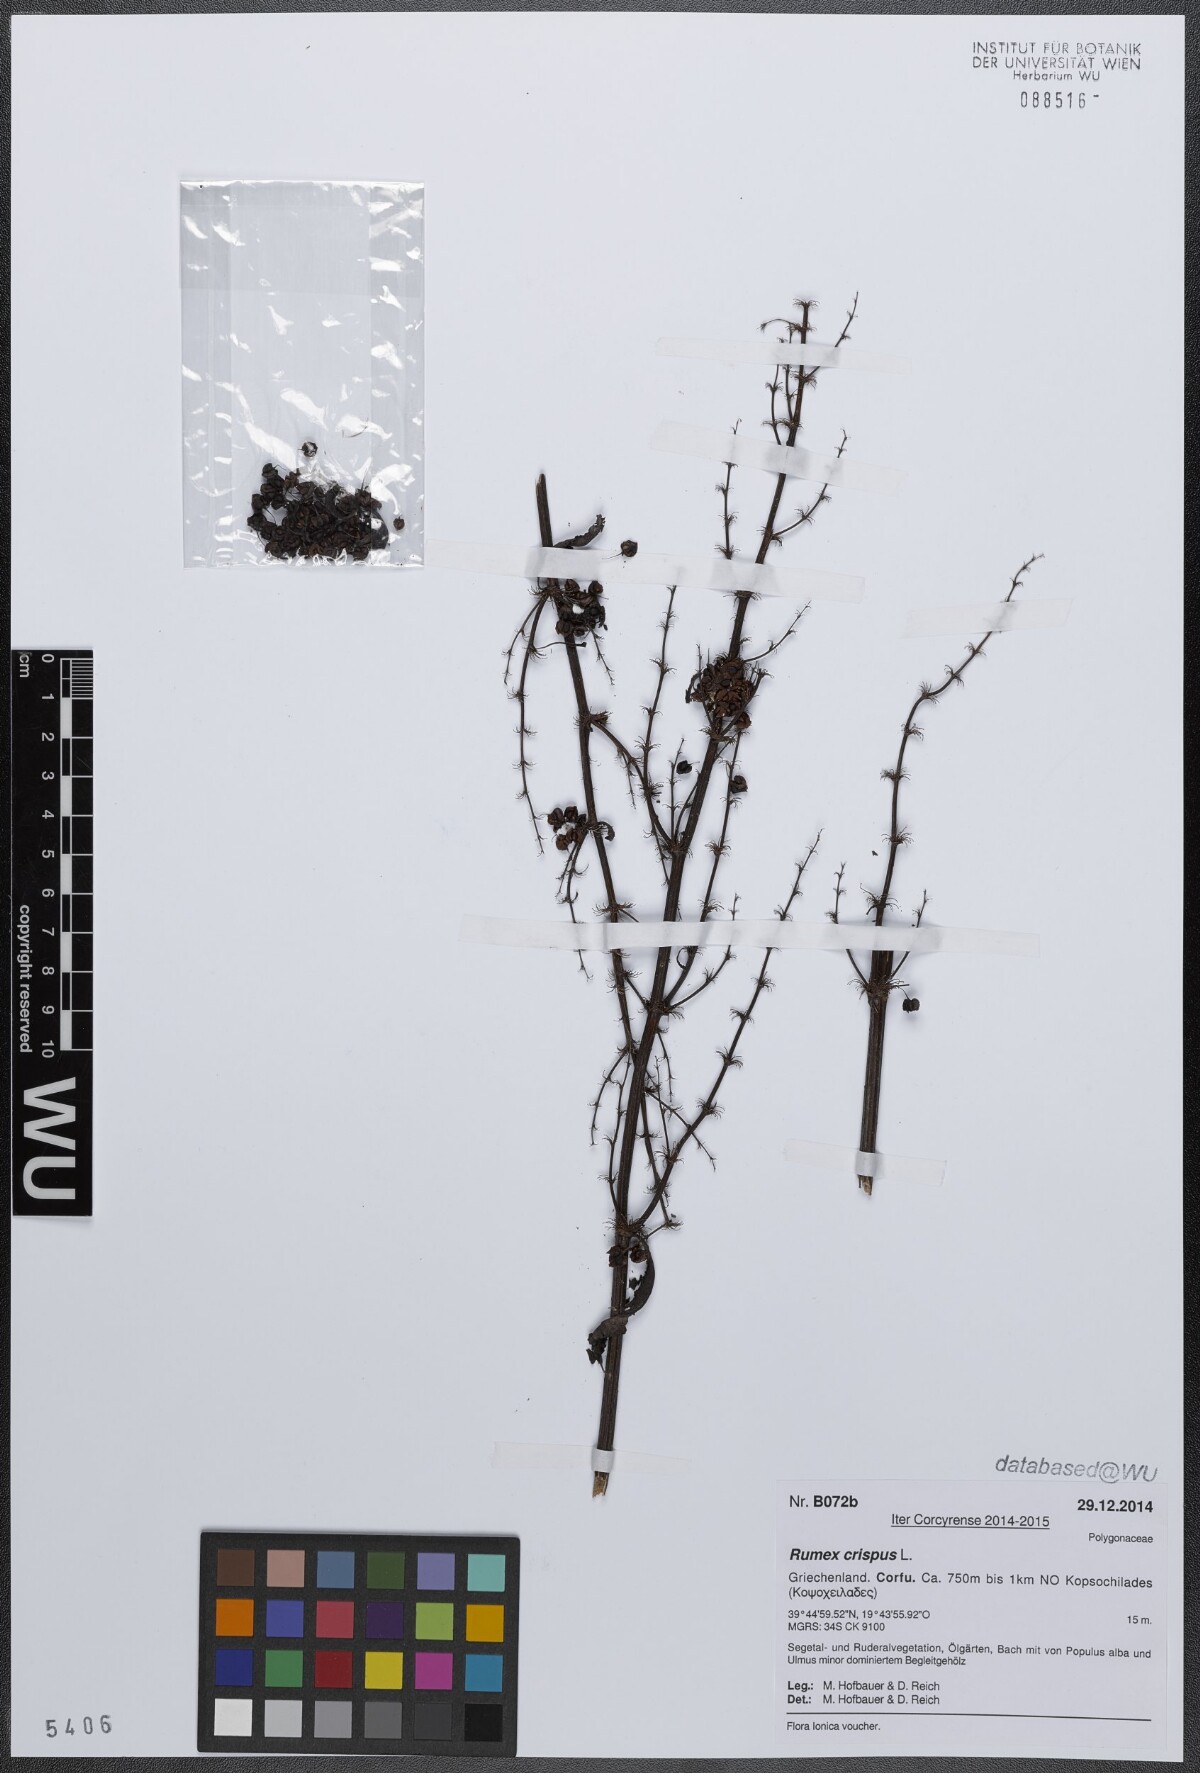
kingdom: Plantae
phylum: Tracheophyta
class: Magnoliopsida
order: Caryophyllales
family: Polygonaceae
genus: Rumex
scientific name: Rumex crispus
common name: Curled dock
